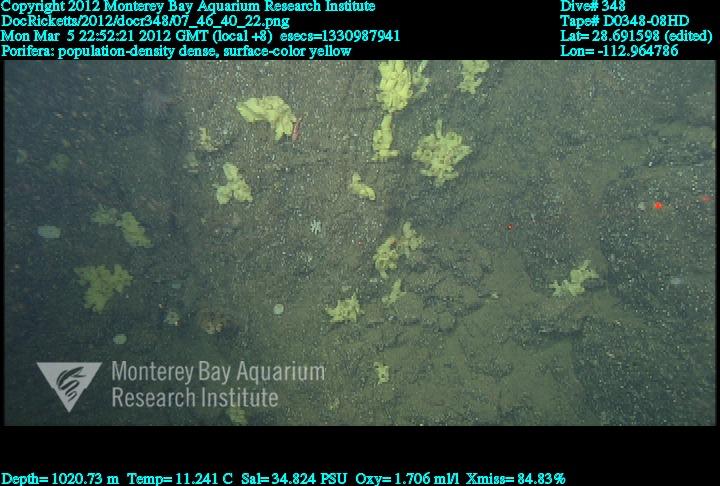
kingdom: Animalia
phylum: Porifera
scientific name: Porifera
